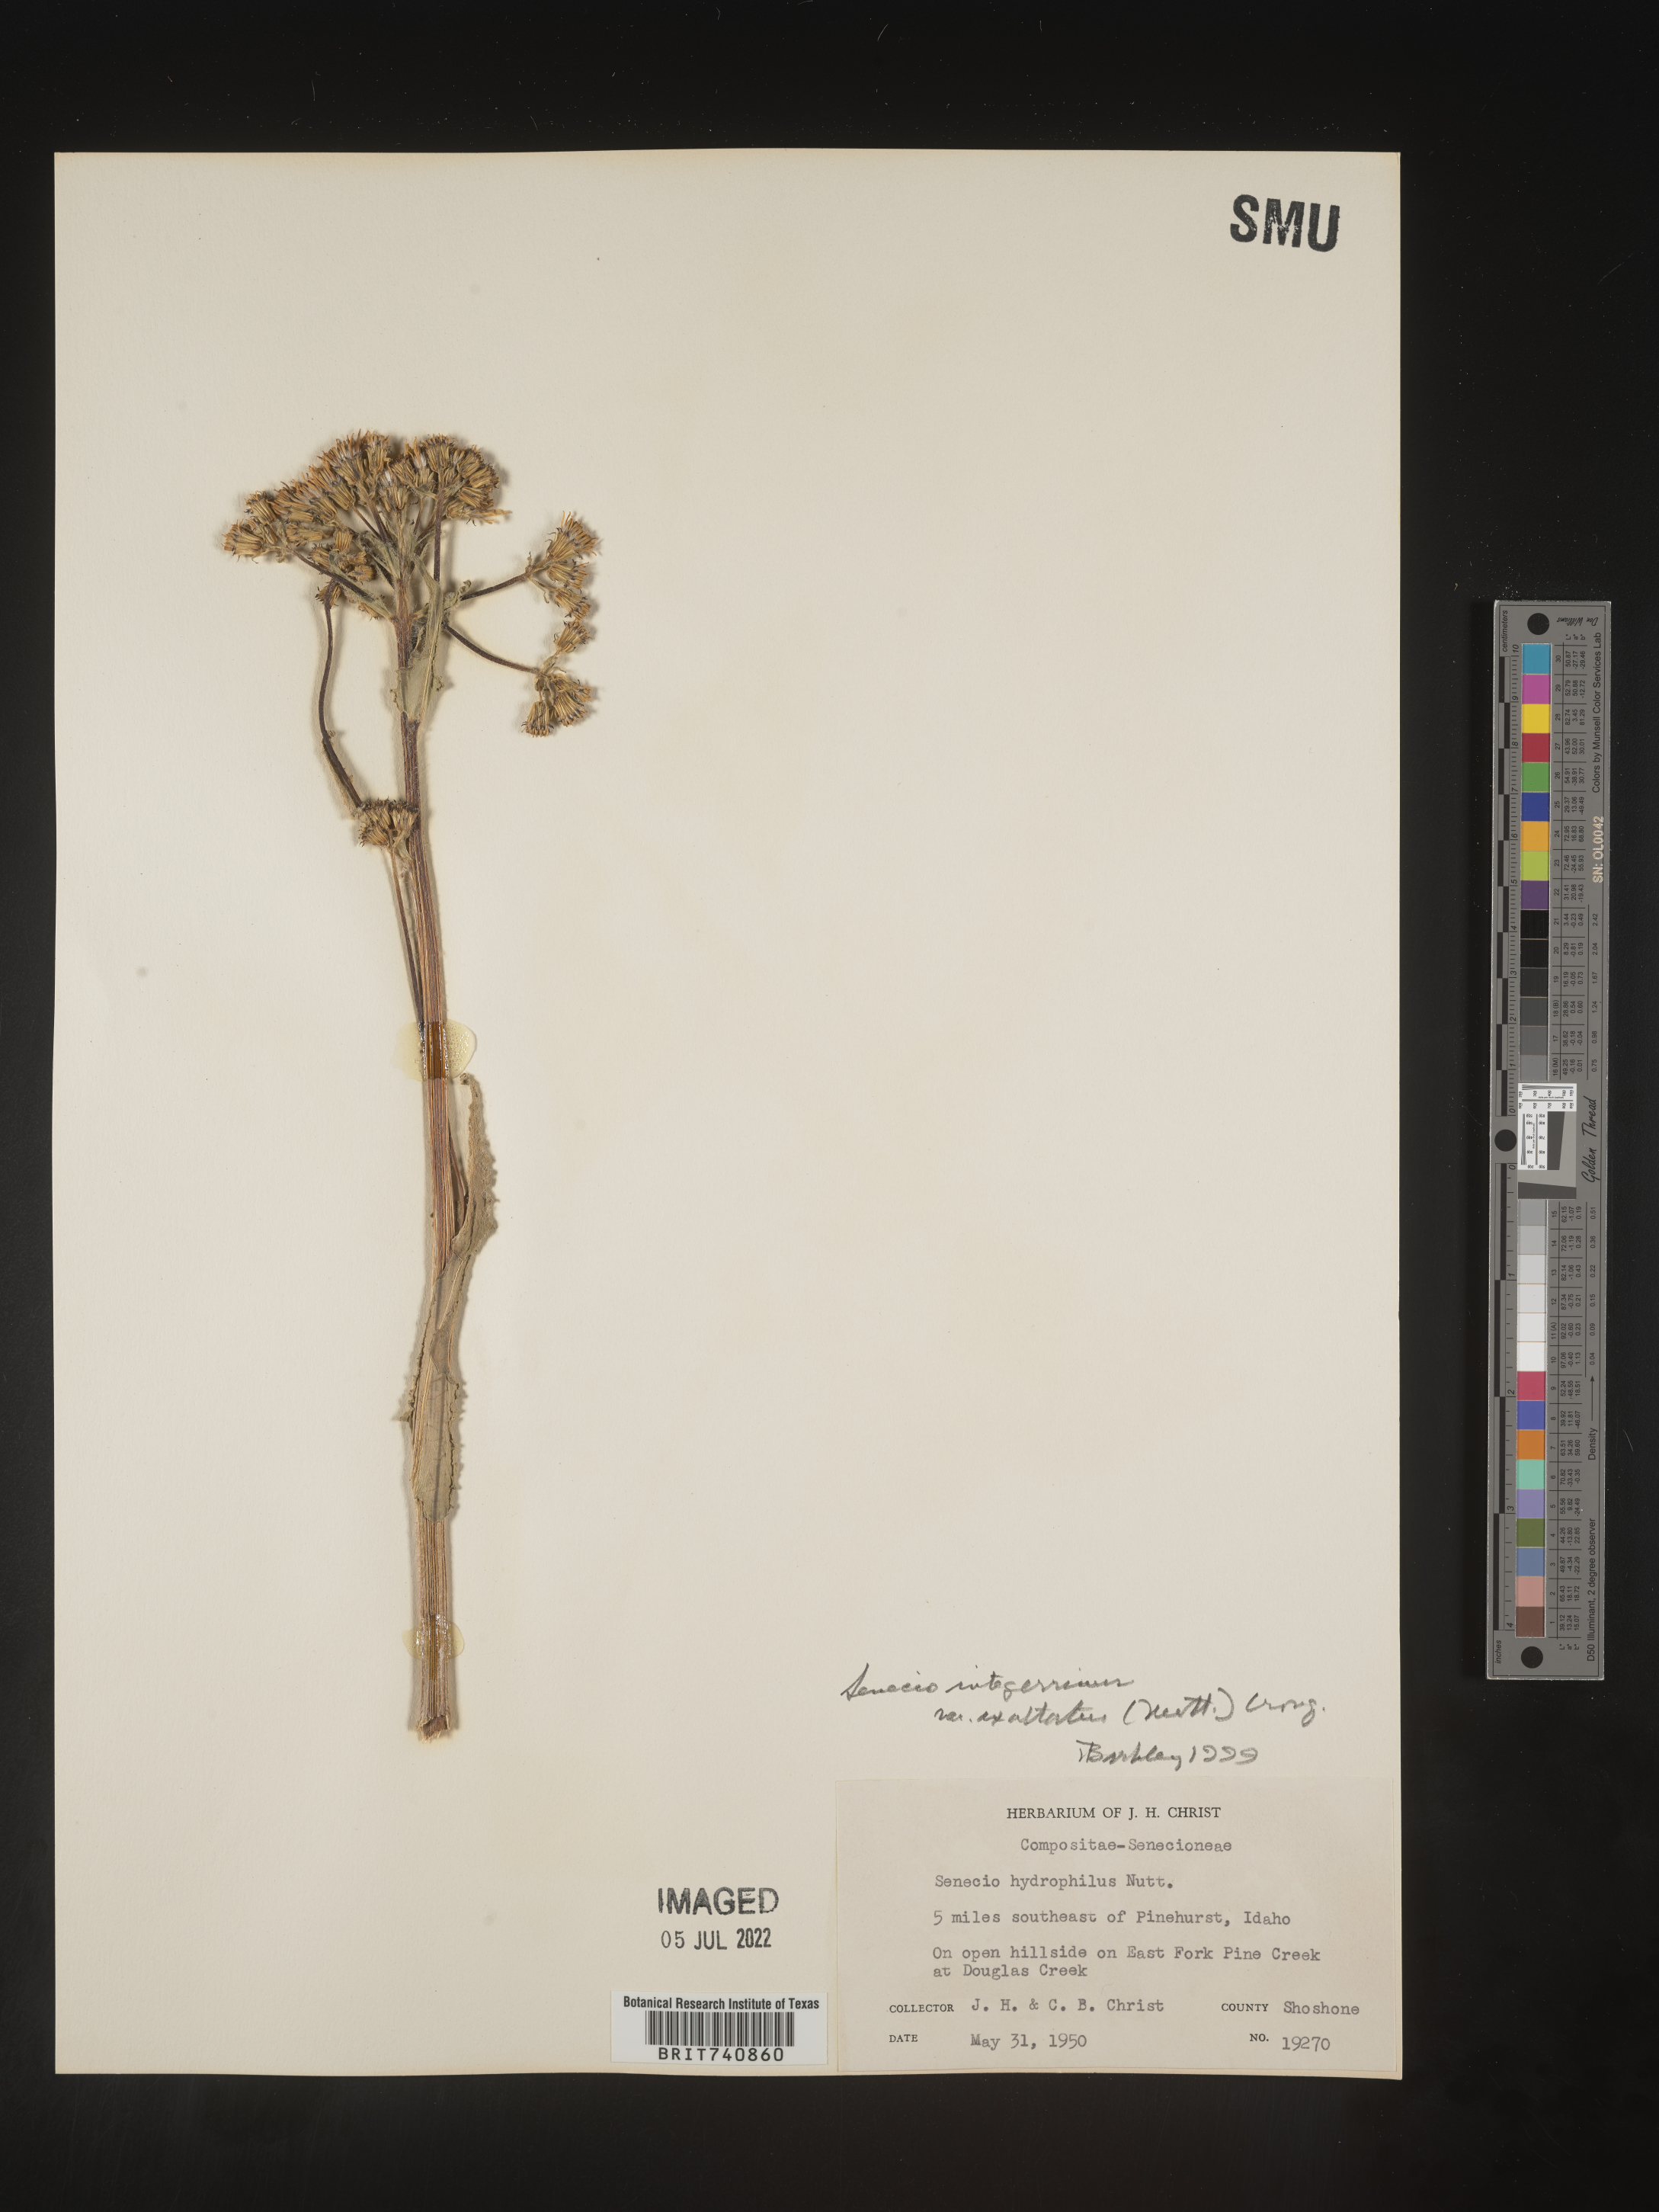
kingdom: Plantae
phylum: Tracheophyta
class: Magnoliopsida
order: Asterales
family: Asteraceae
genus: Senecio
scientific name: Senecio integerrimus
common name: Gaugeplant
